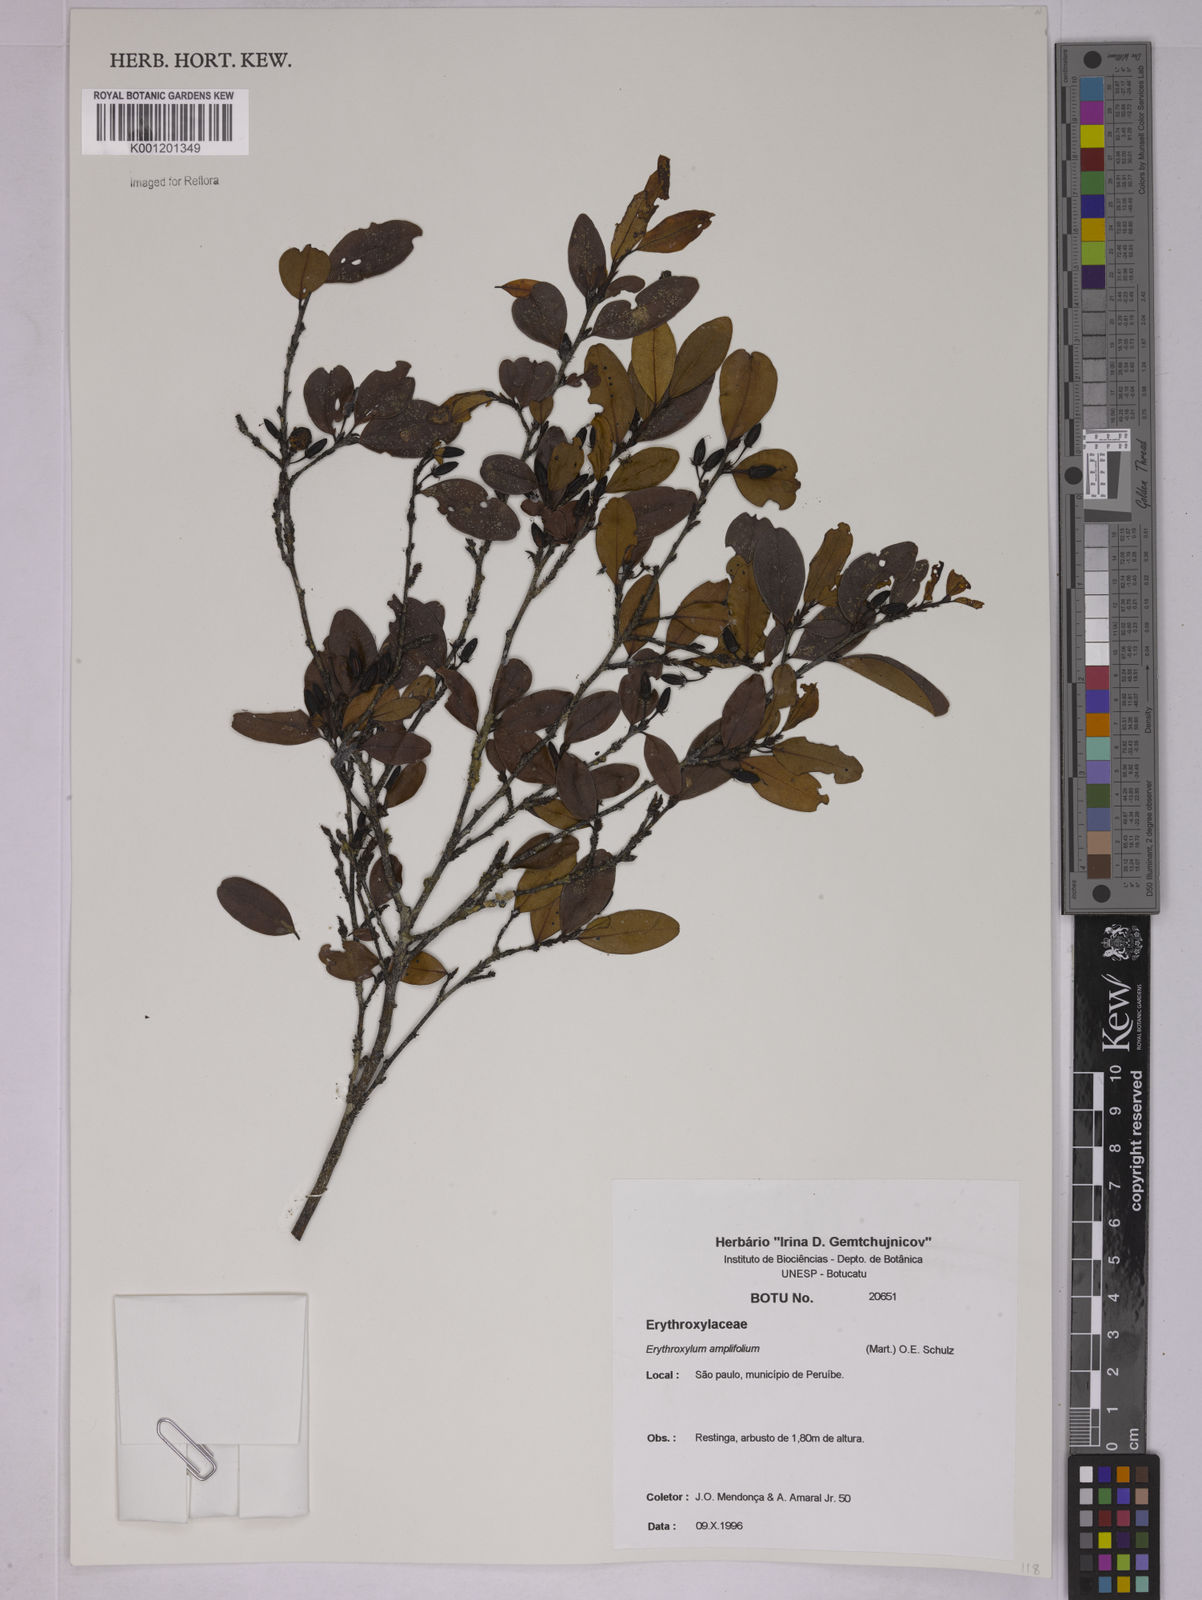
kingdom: Plantae
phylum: Tracheophyta
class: Magnoliopsida
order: Malpighiales
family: Erythroxylaceae
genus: Erythroxylum
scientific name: Erythroxylum
